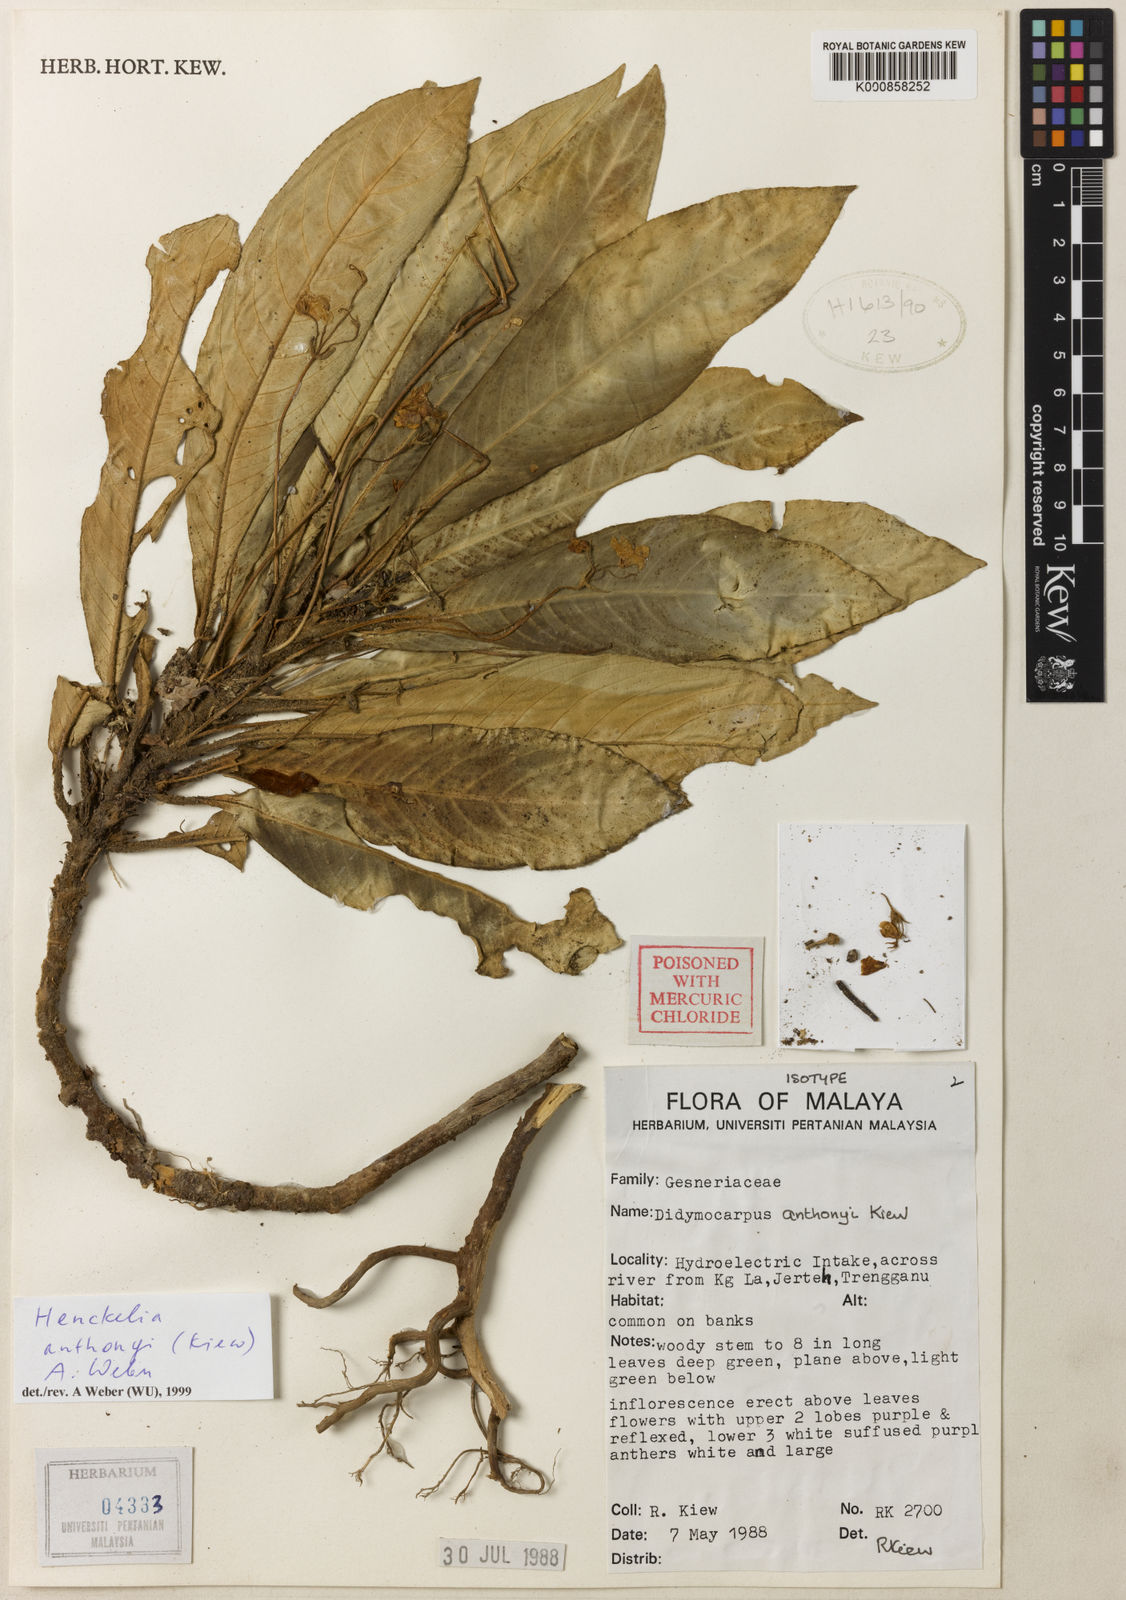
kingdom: Plantae
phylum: Tracheophyta
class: Magnoliopsida
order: Lamiales
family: Gesneriaceae
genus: Codonoboea
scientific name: Codonoboea anthonyi
